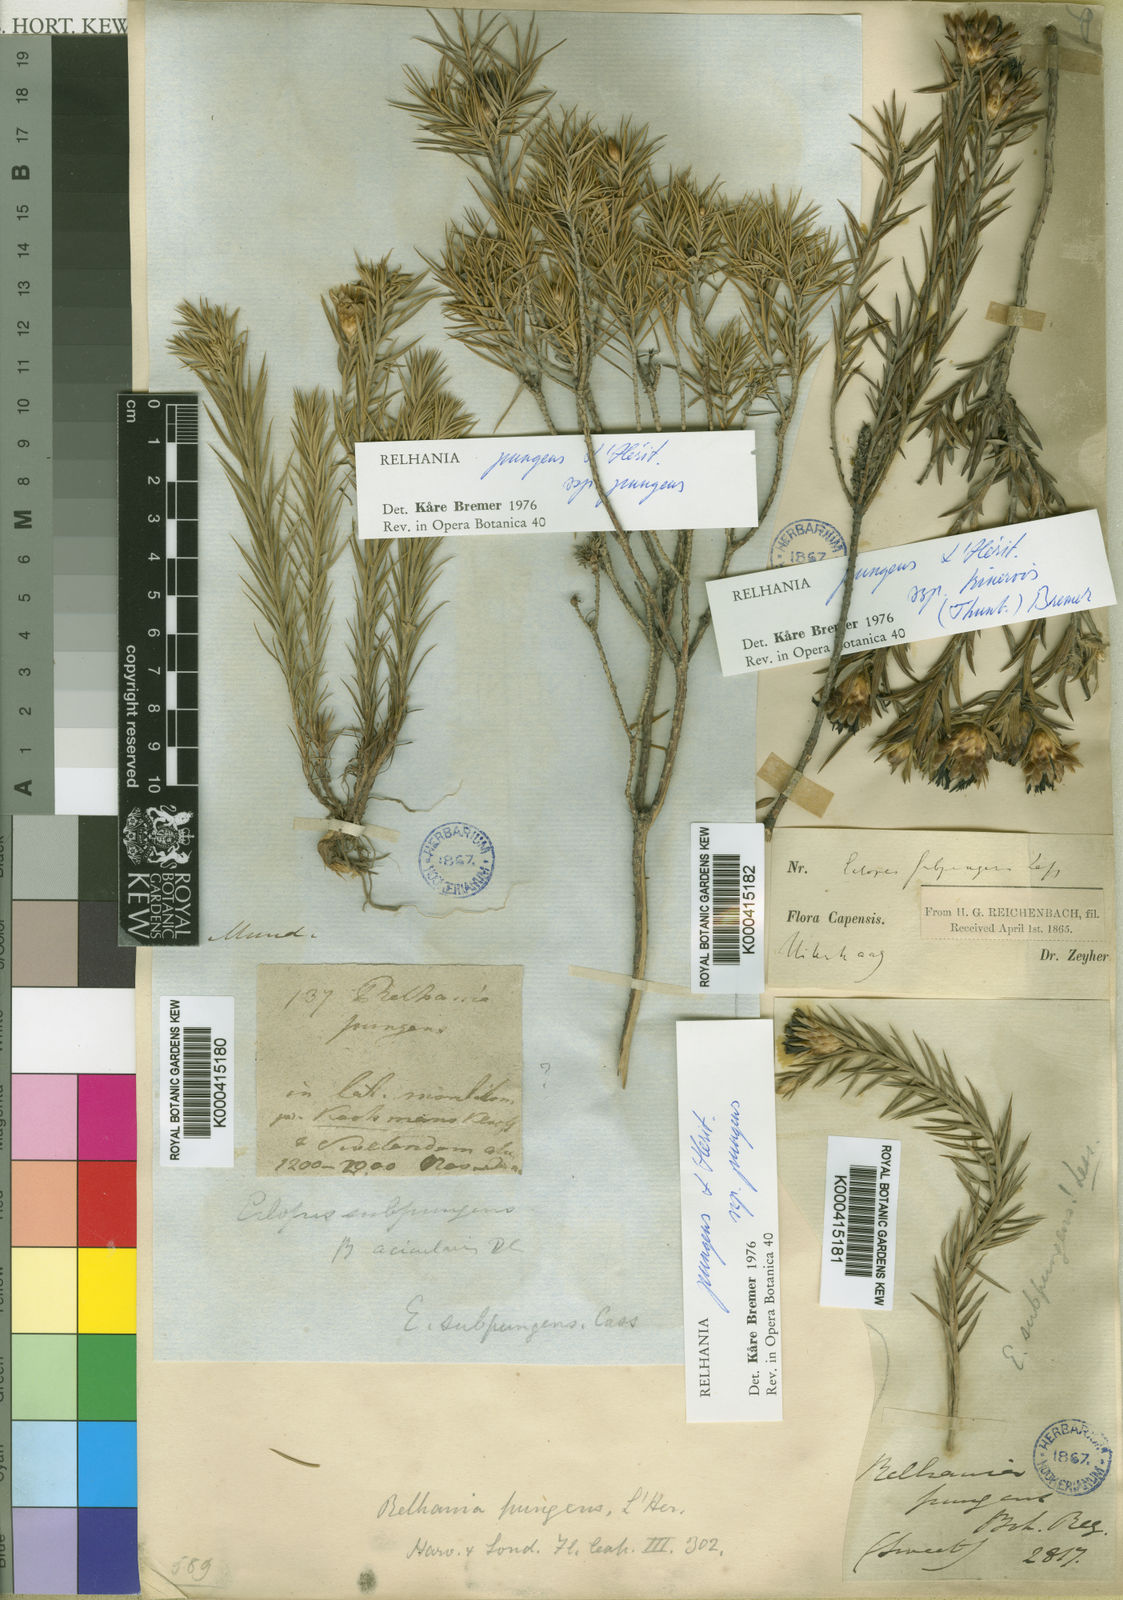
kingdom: Plantae
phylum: Tracheophyta
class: Magnoliopsida
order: Asterales
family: Asteraceae
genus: Oedera
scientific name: Oedera Relhania spec
